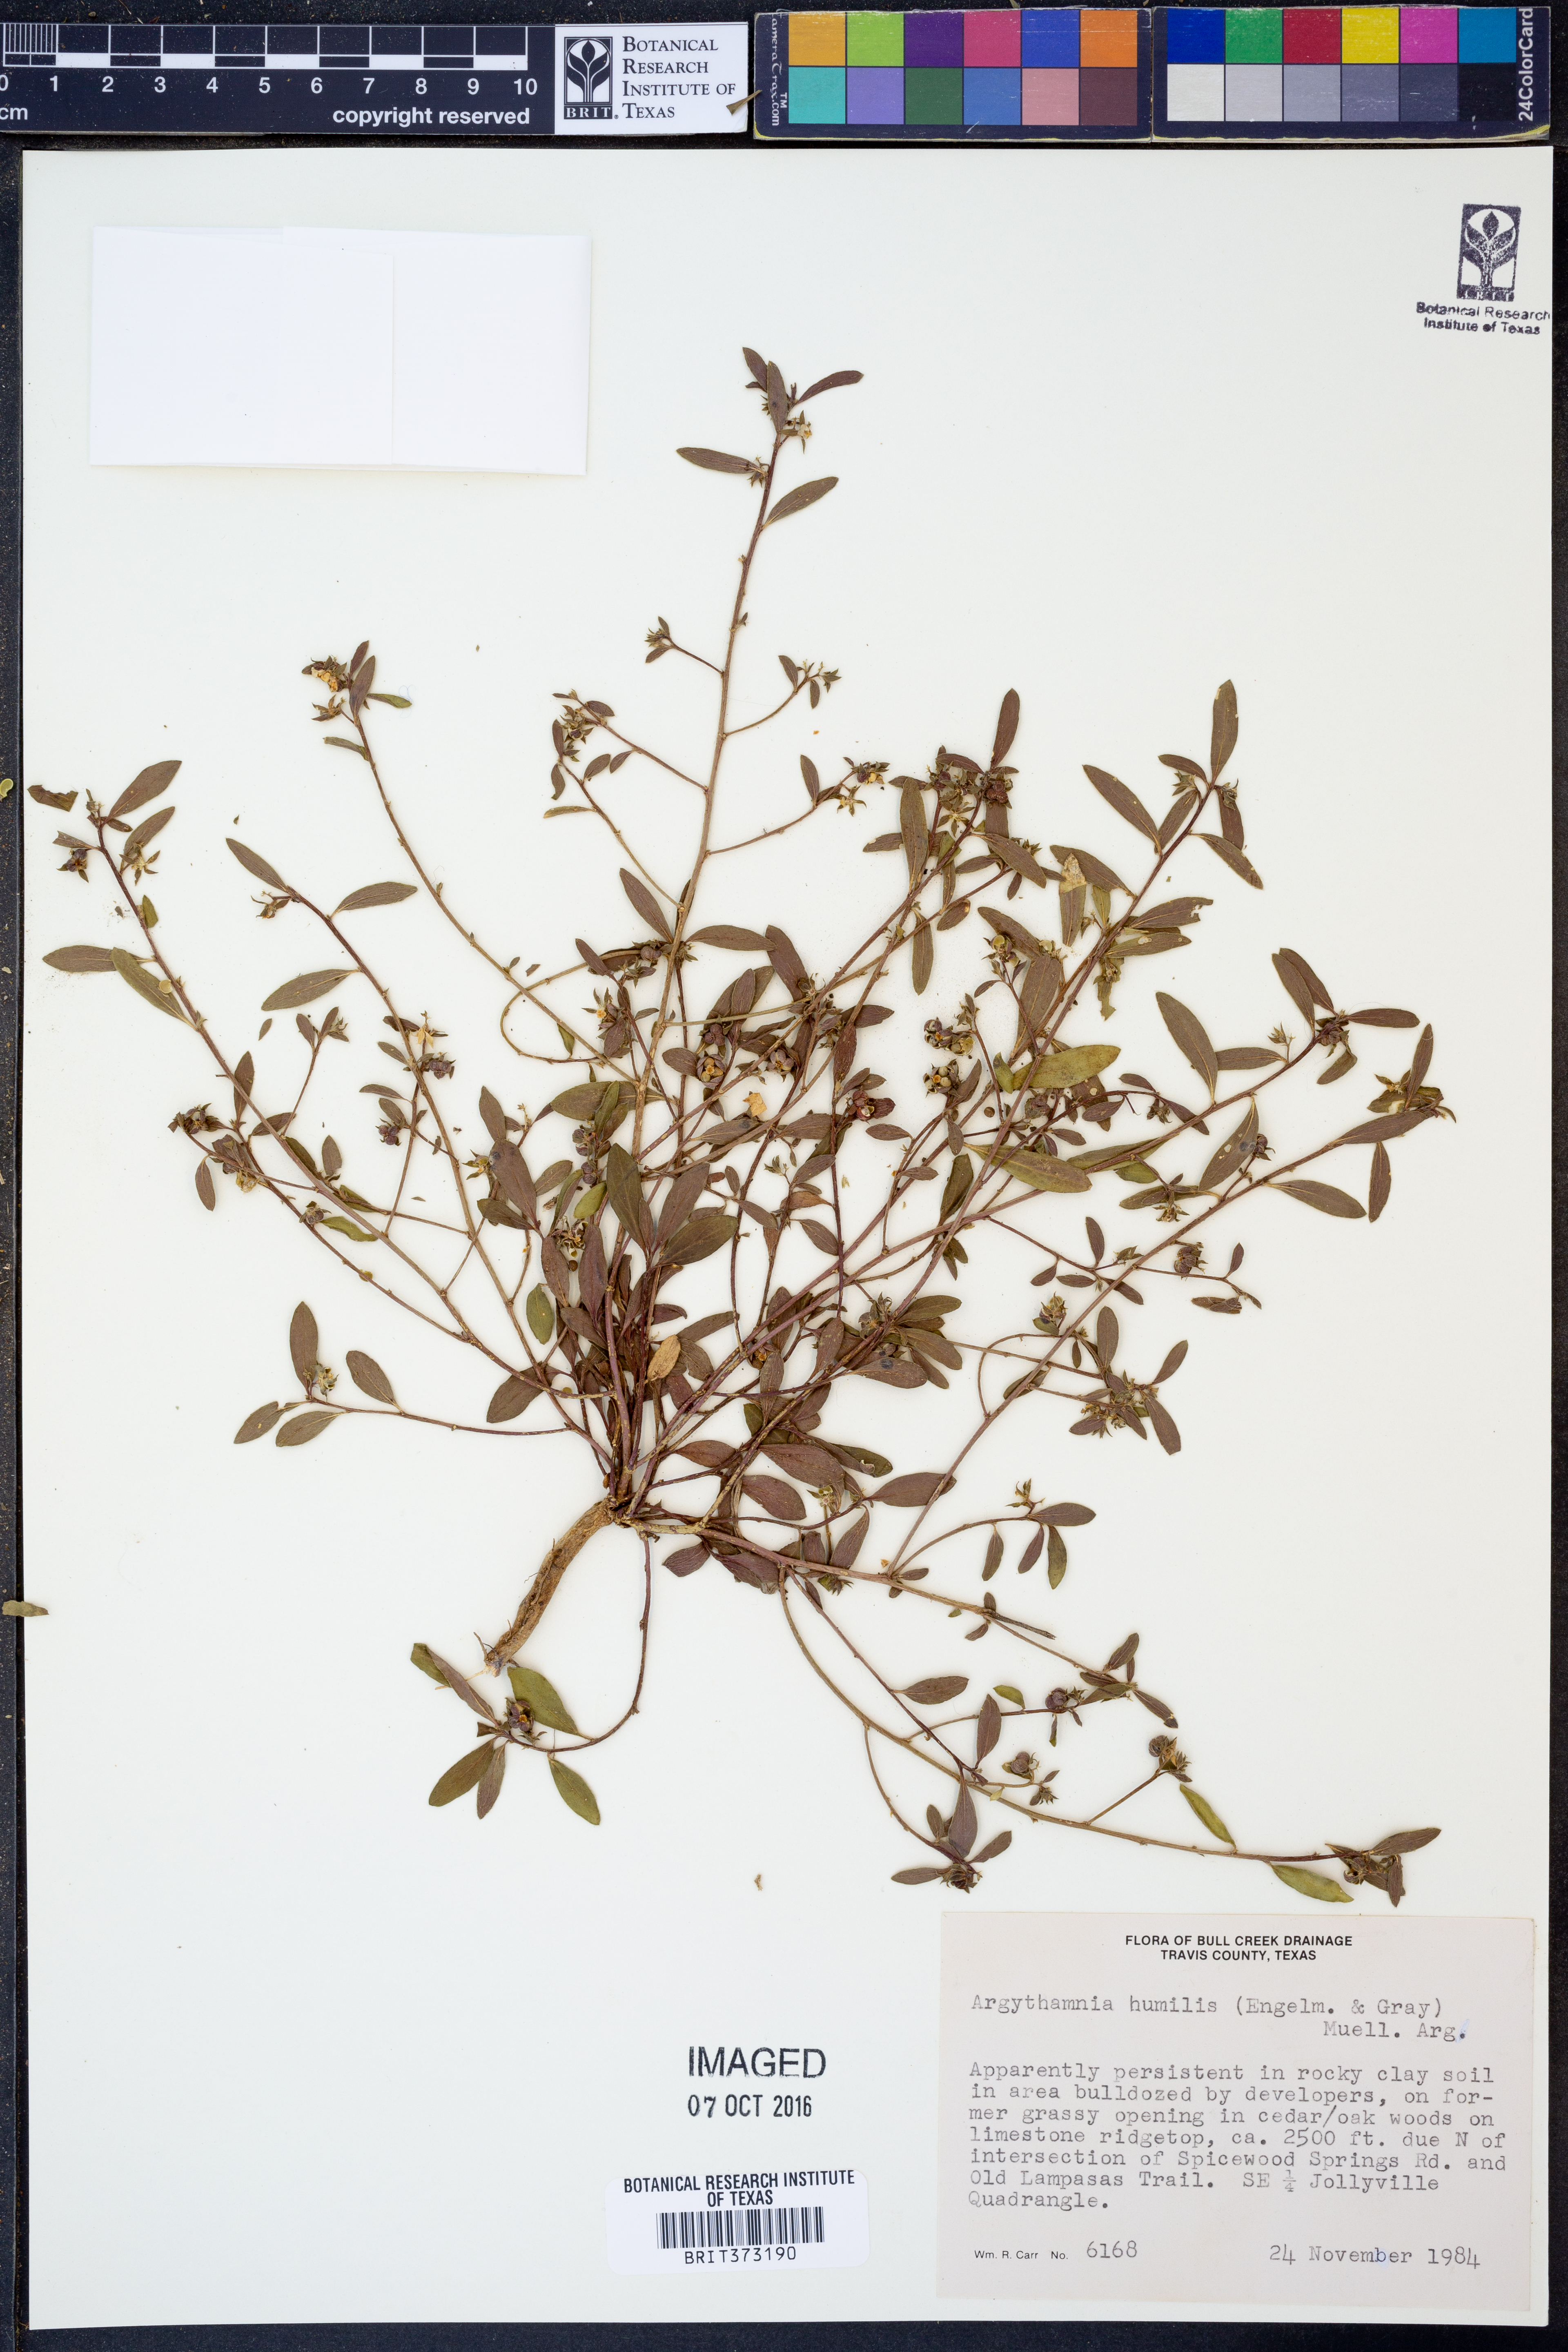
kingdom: Plantae
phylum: Tracheophyta
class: Magnoliopsida
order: Malpighiales
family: Euphorbiaceae
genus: Ditaxis
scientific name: Ditaxis humilis
